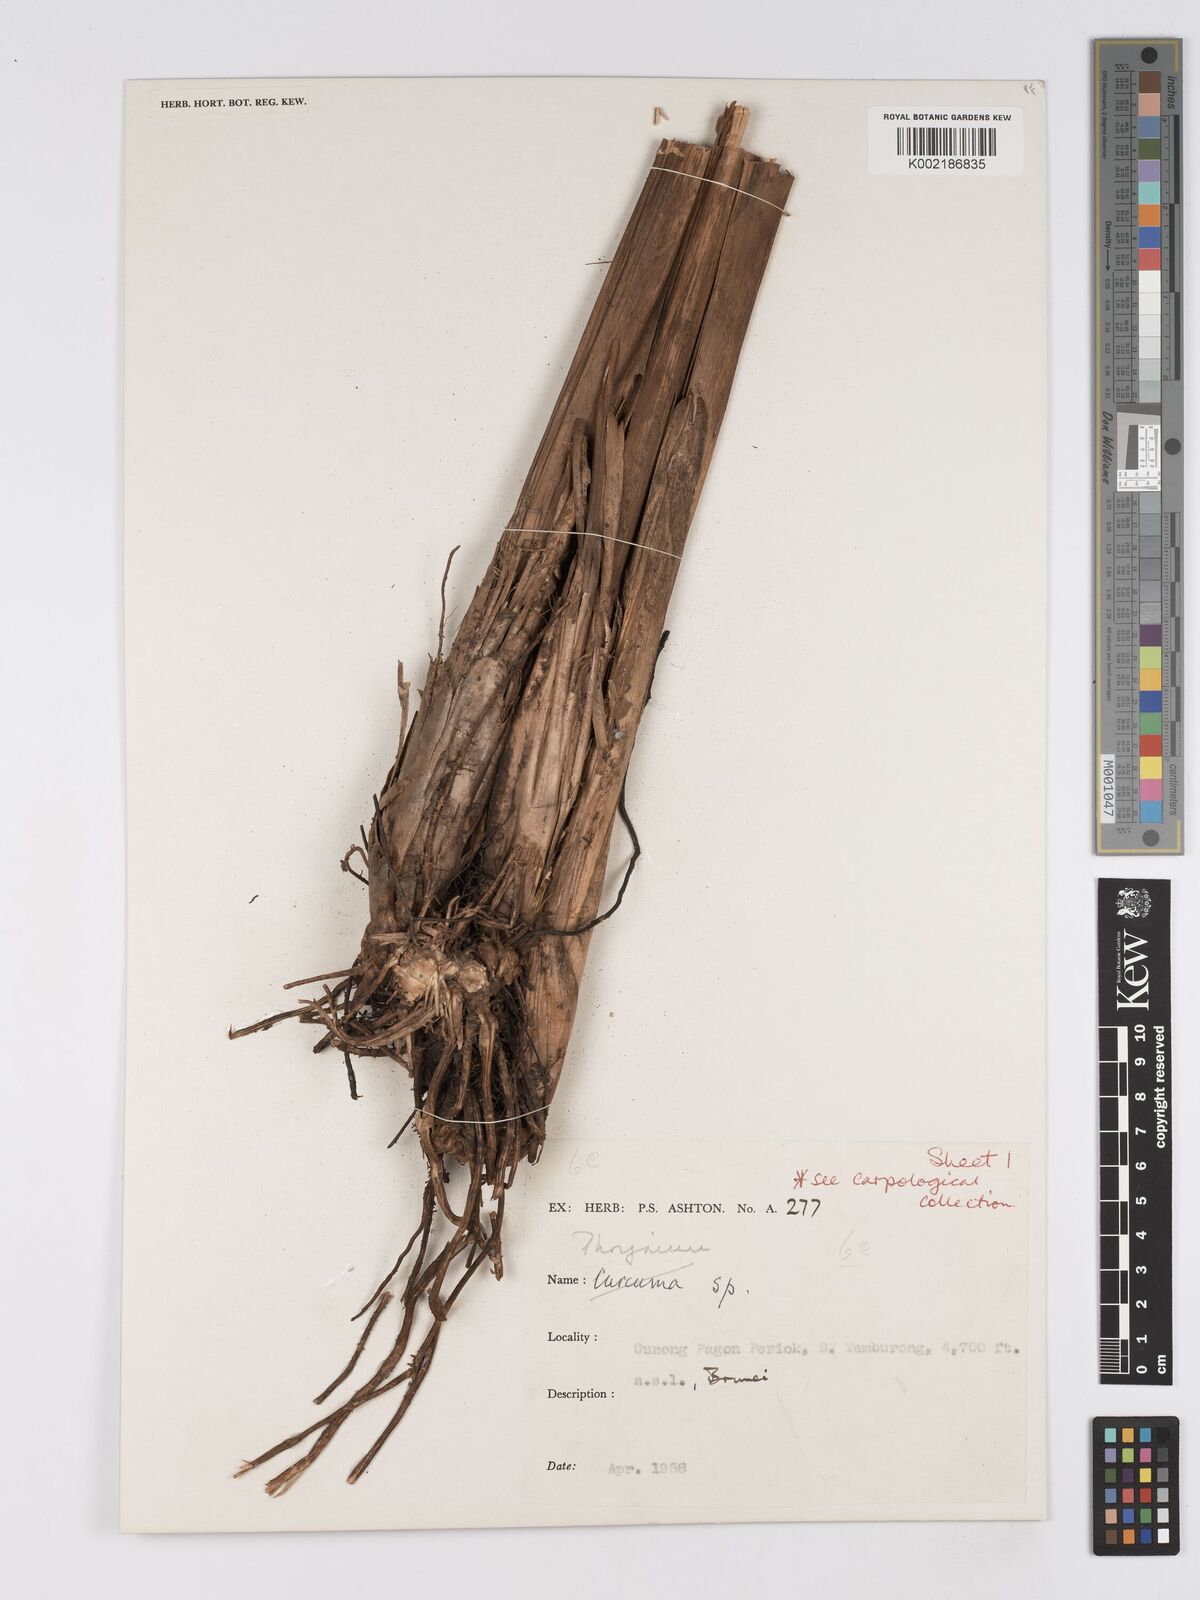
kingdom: Plantae
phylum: Tracheophyta
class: Liliopsida
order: Zingiberales
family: Marantaceae
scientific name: Marantaceae
